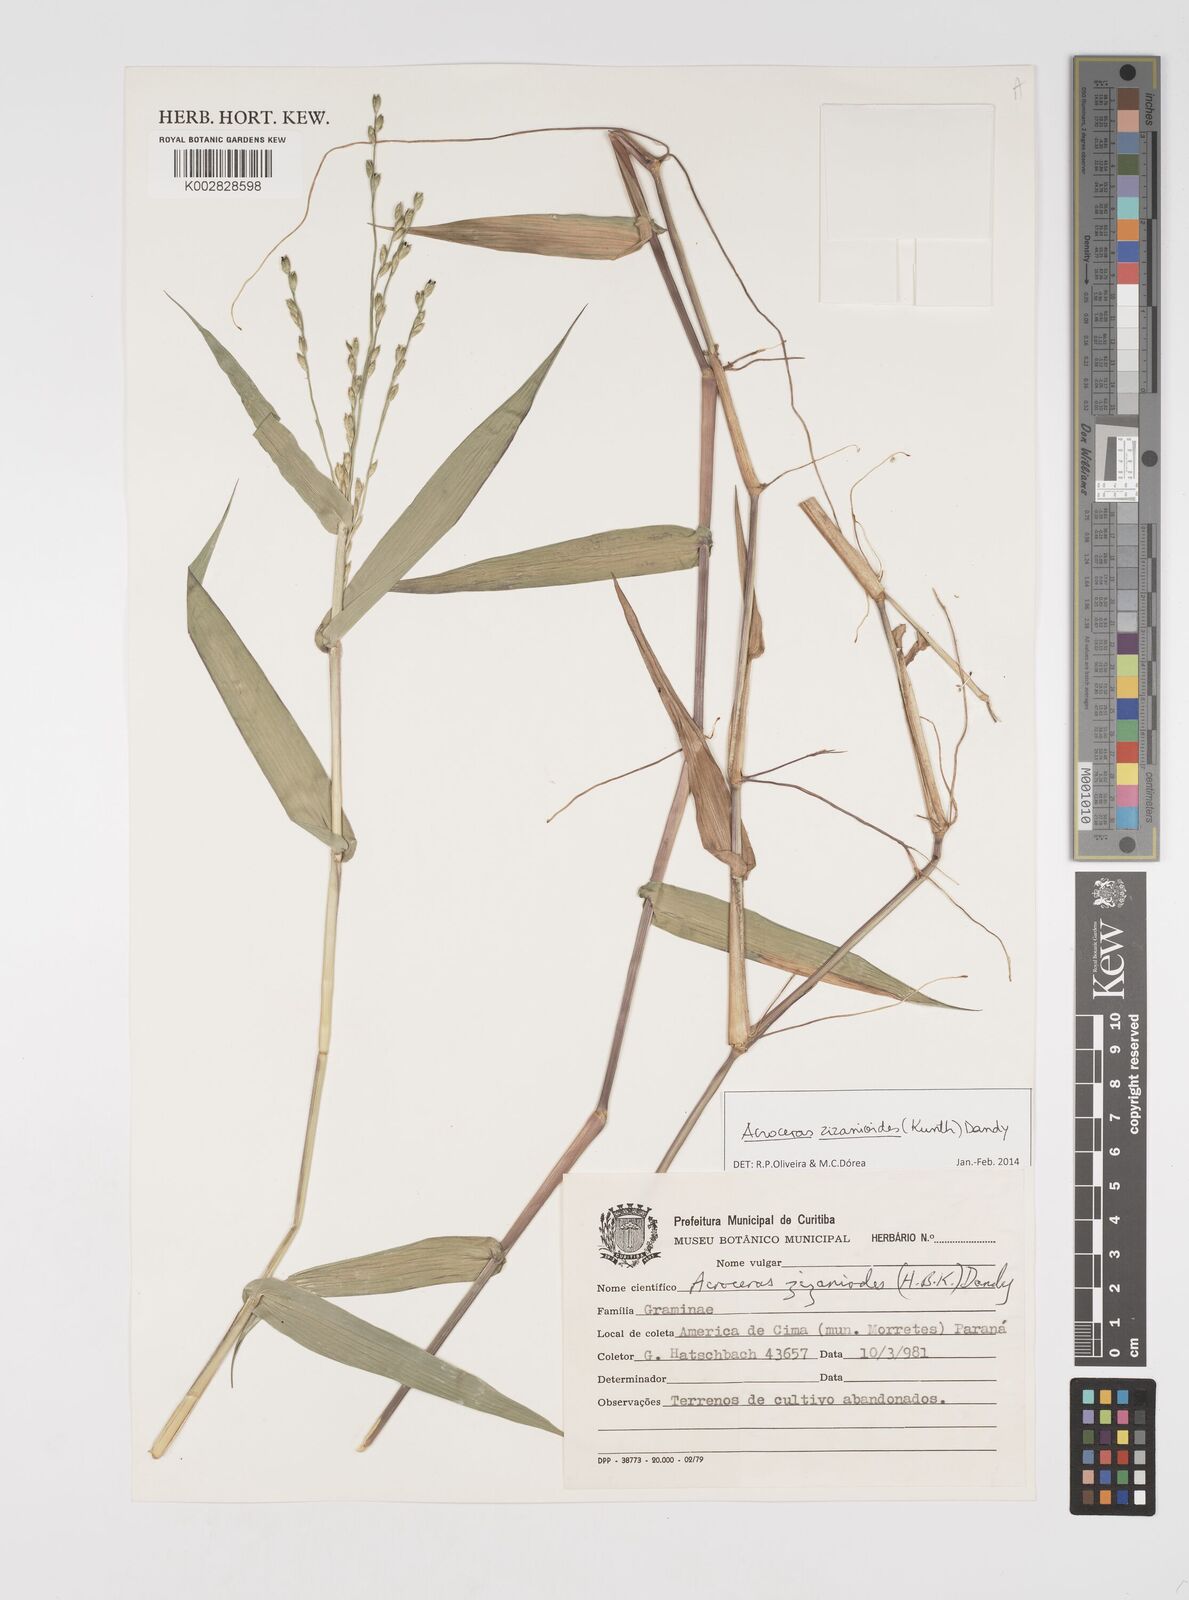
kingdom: Plantae
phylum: Tracheophyta
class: Liliopsida
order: Poales
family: Poaceae
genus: Acroceras
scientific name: Acroceras zizanioides
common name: Oat grass
